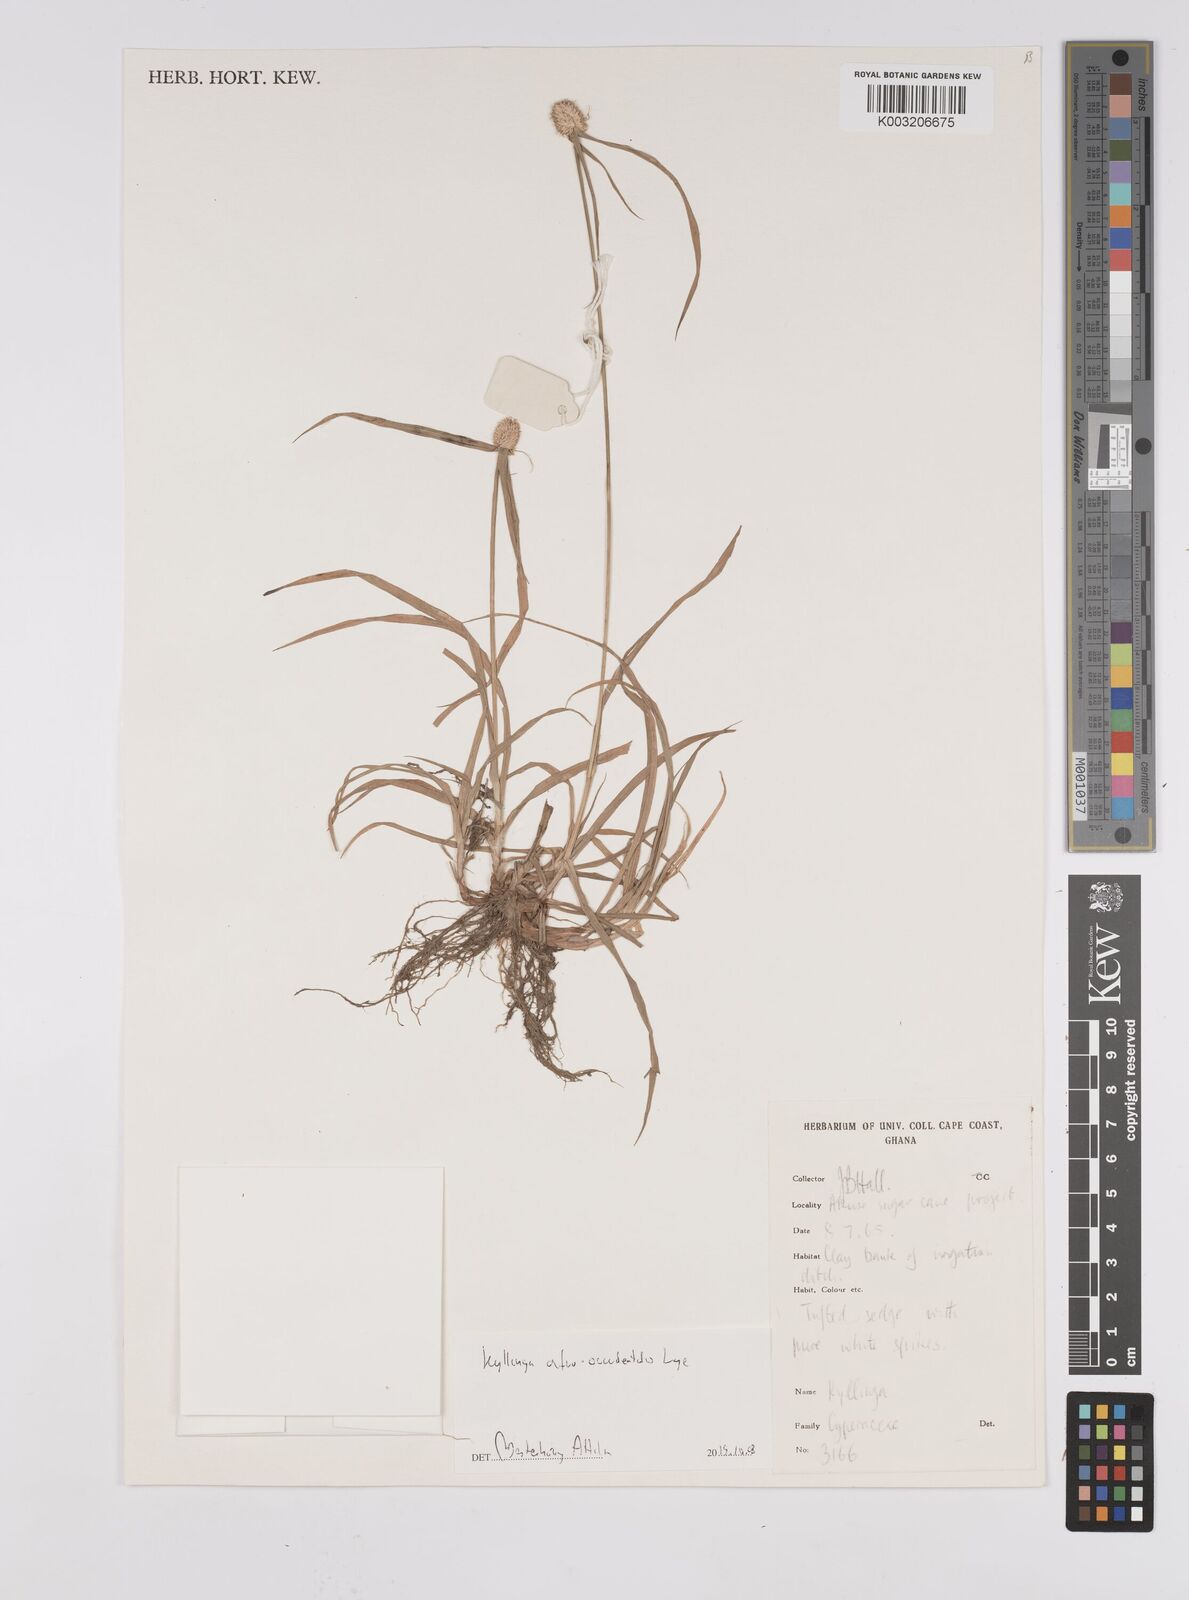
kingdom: Plantae
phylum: Tracheophyta
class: Liliopsida
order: Poales
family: Cyperaceae
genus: Cyperus
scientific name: Cyperus afro-occidentalis
